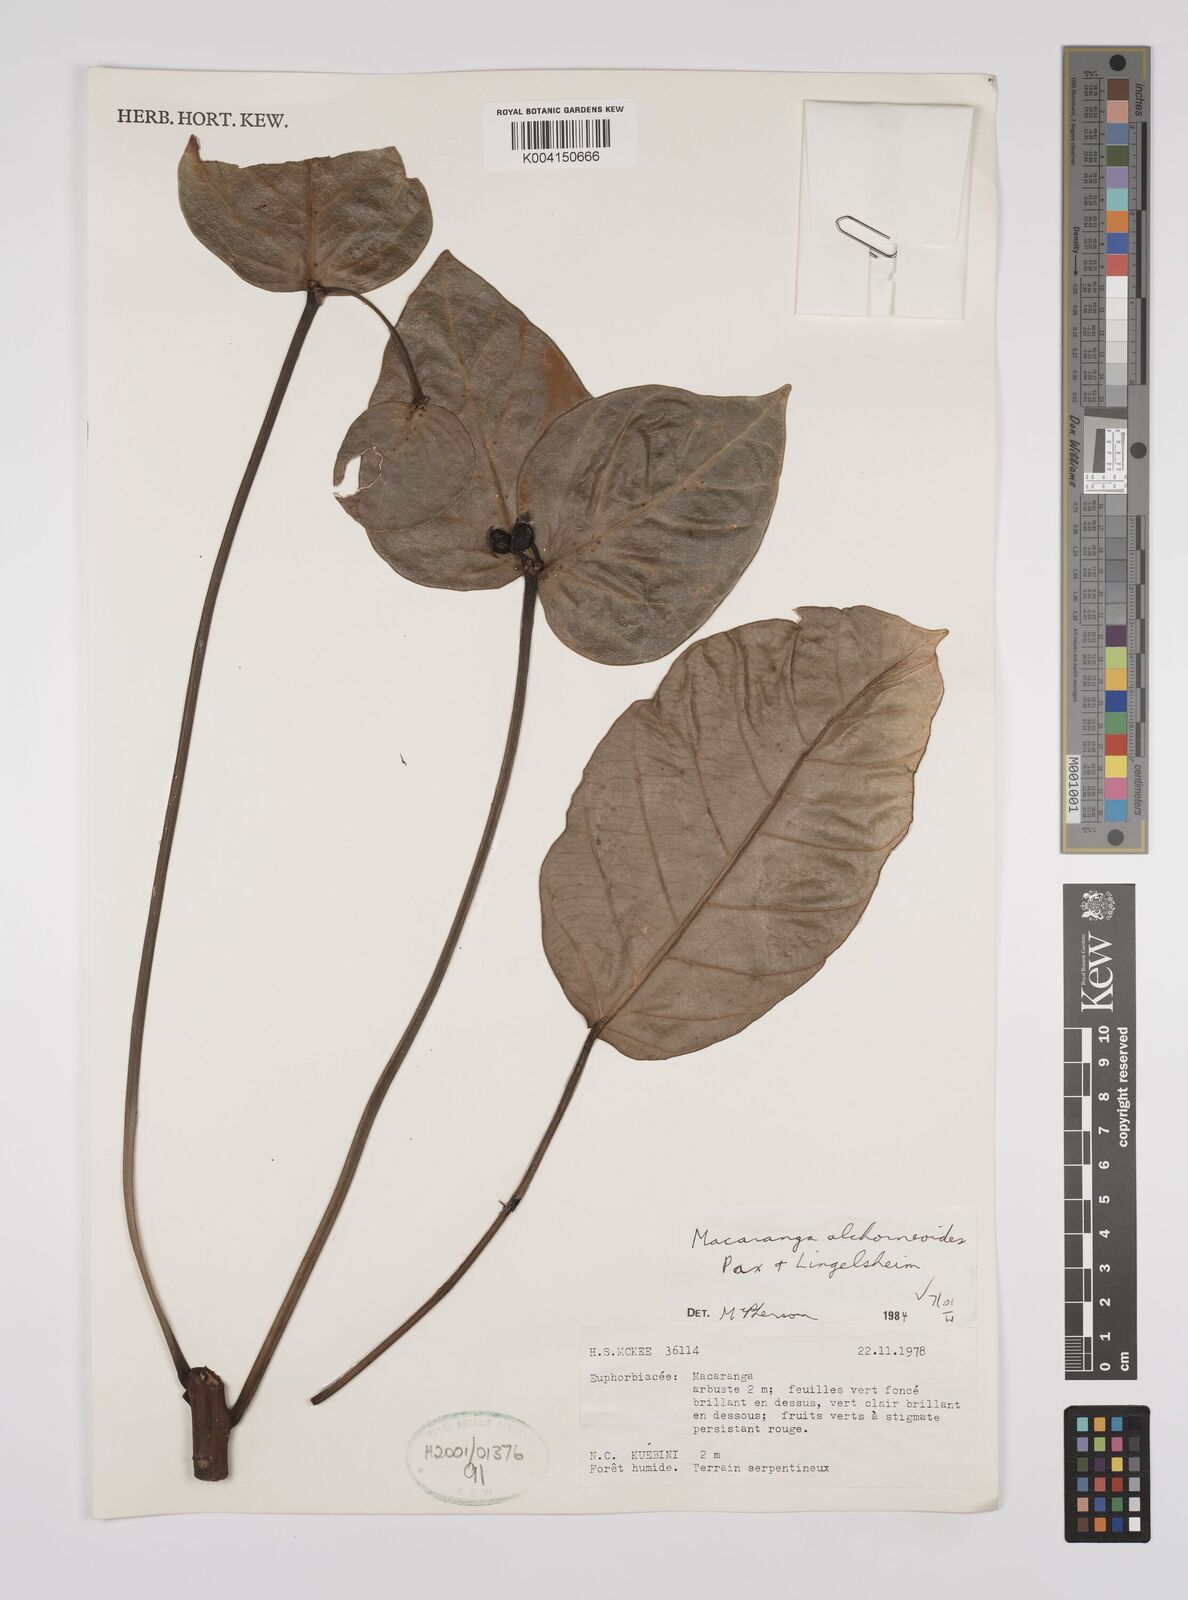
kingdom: Plantae
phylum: Tracheophyta
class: Magnoliopsida
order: Malpighiales
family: Euphorbiaceae
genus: Macaranga
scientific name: Macaranga alchorneoides
